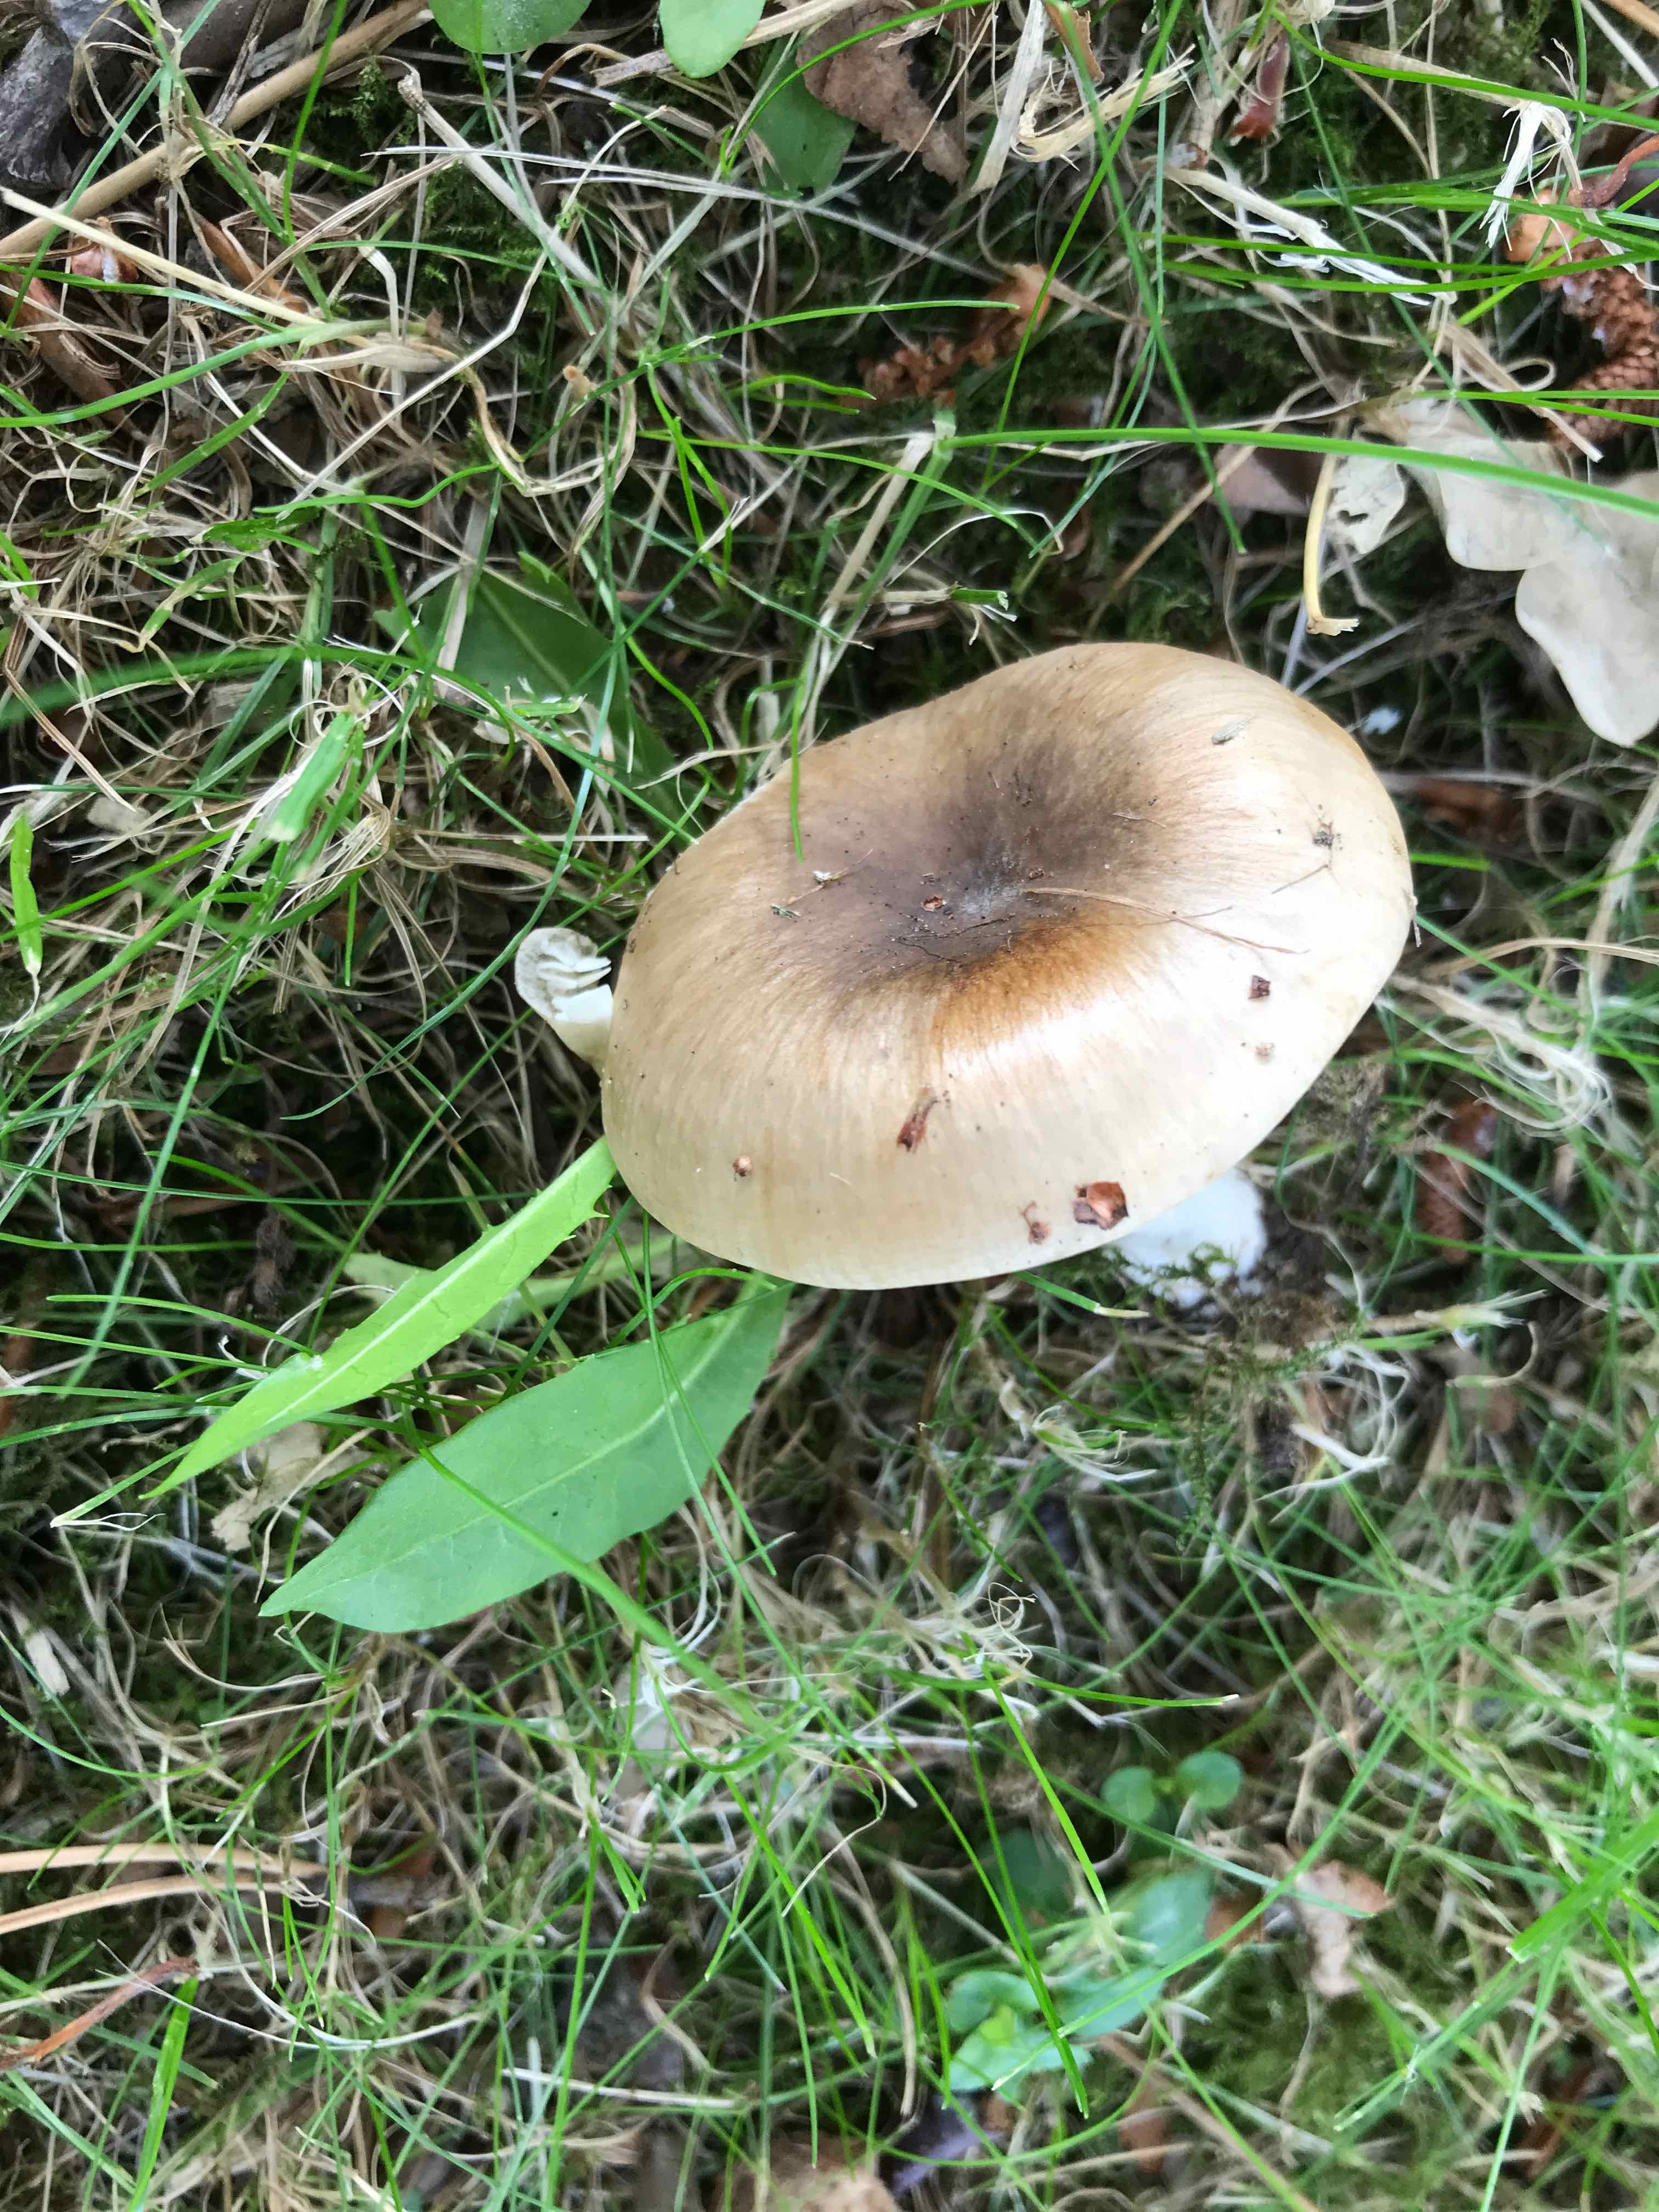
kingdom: Fungi
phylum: Basidiomycota
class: Agaricomycetes
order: Russulales
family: Russulaceae
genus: Russula
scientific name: Russula
